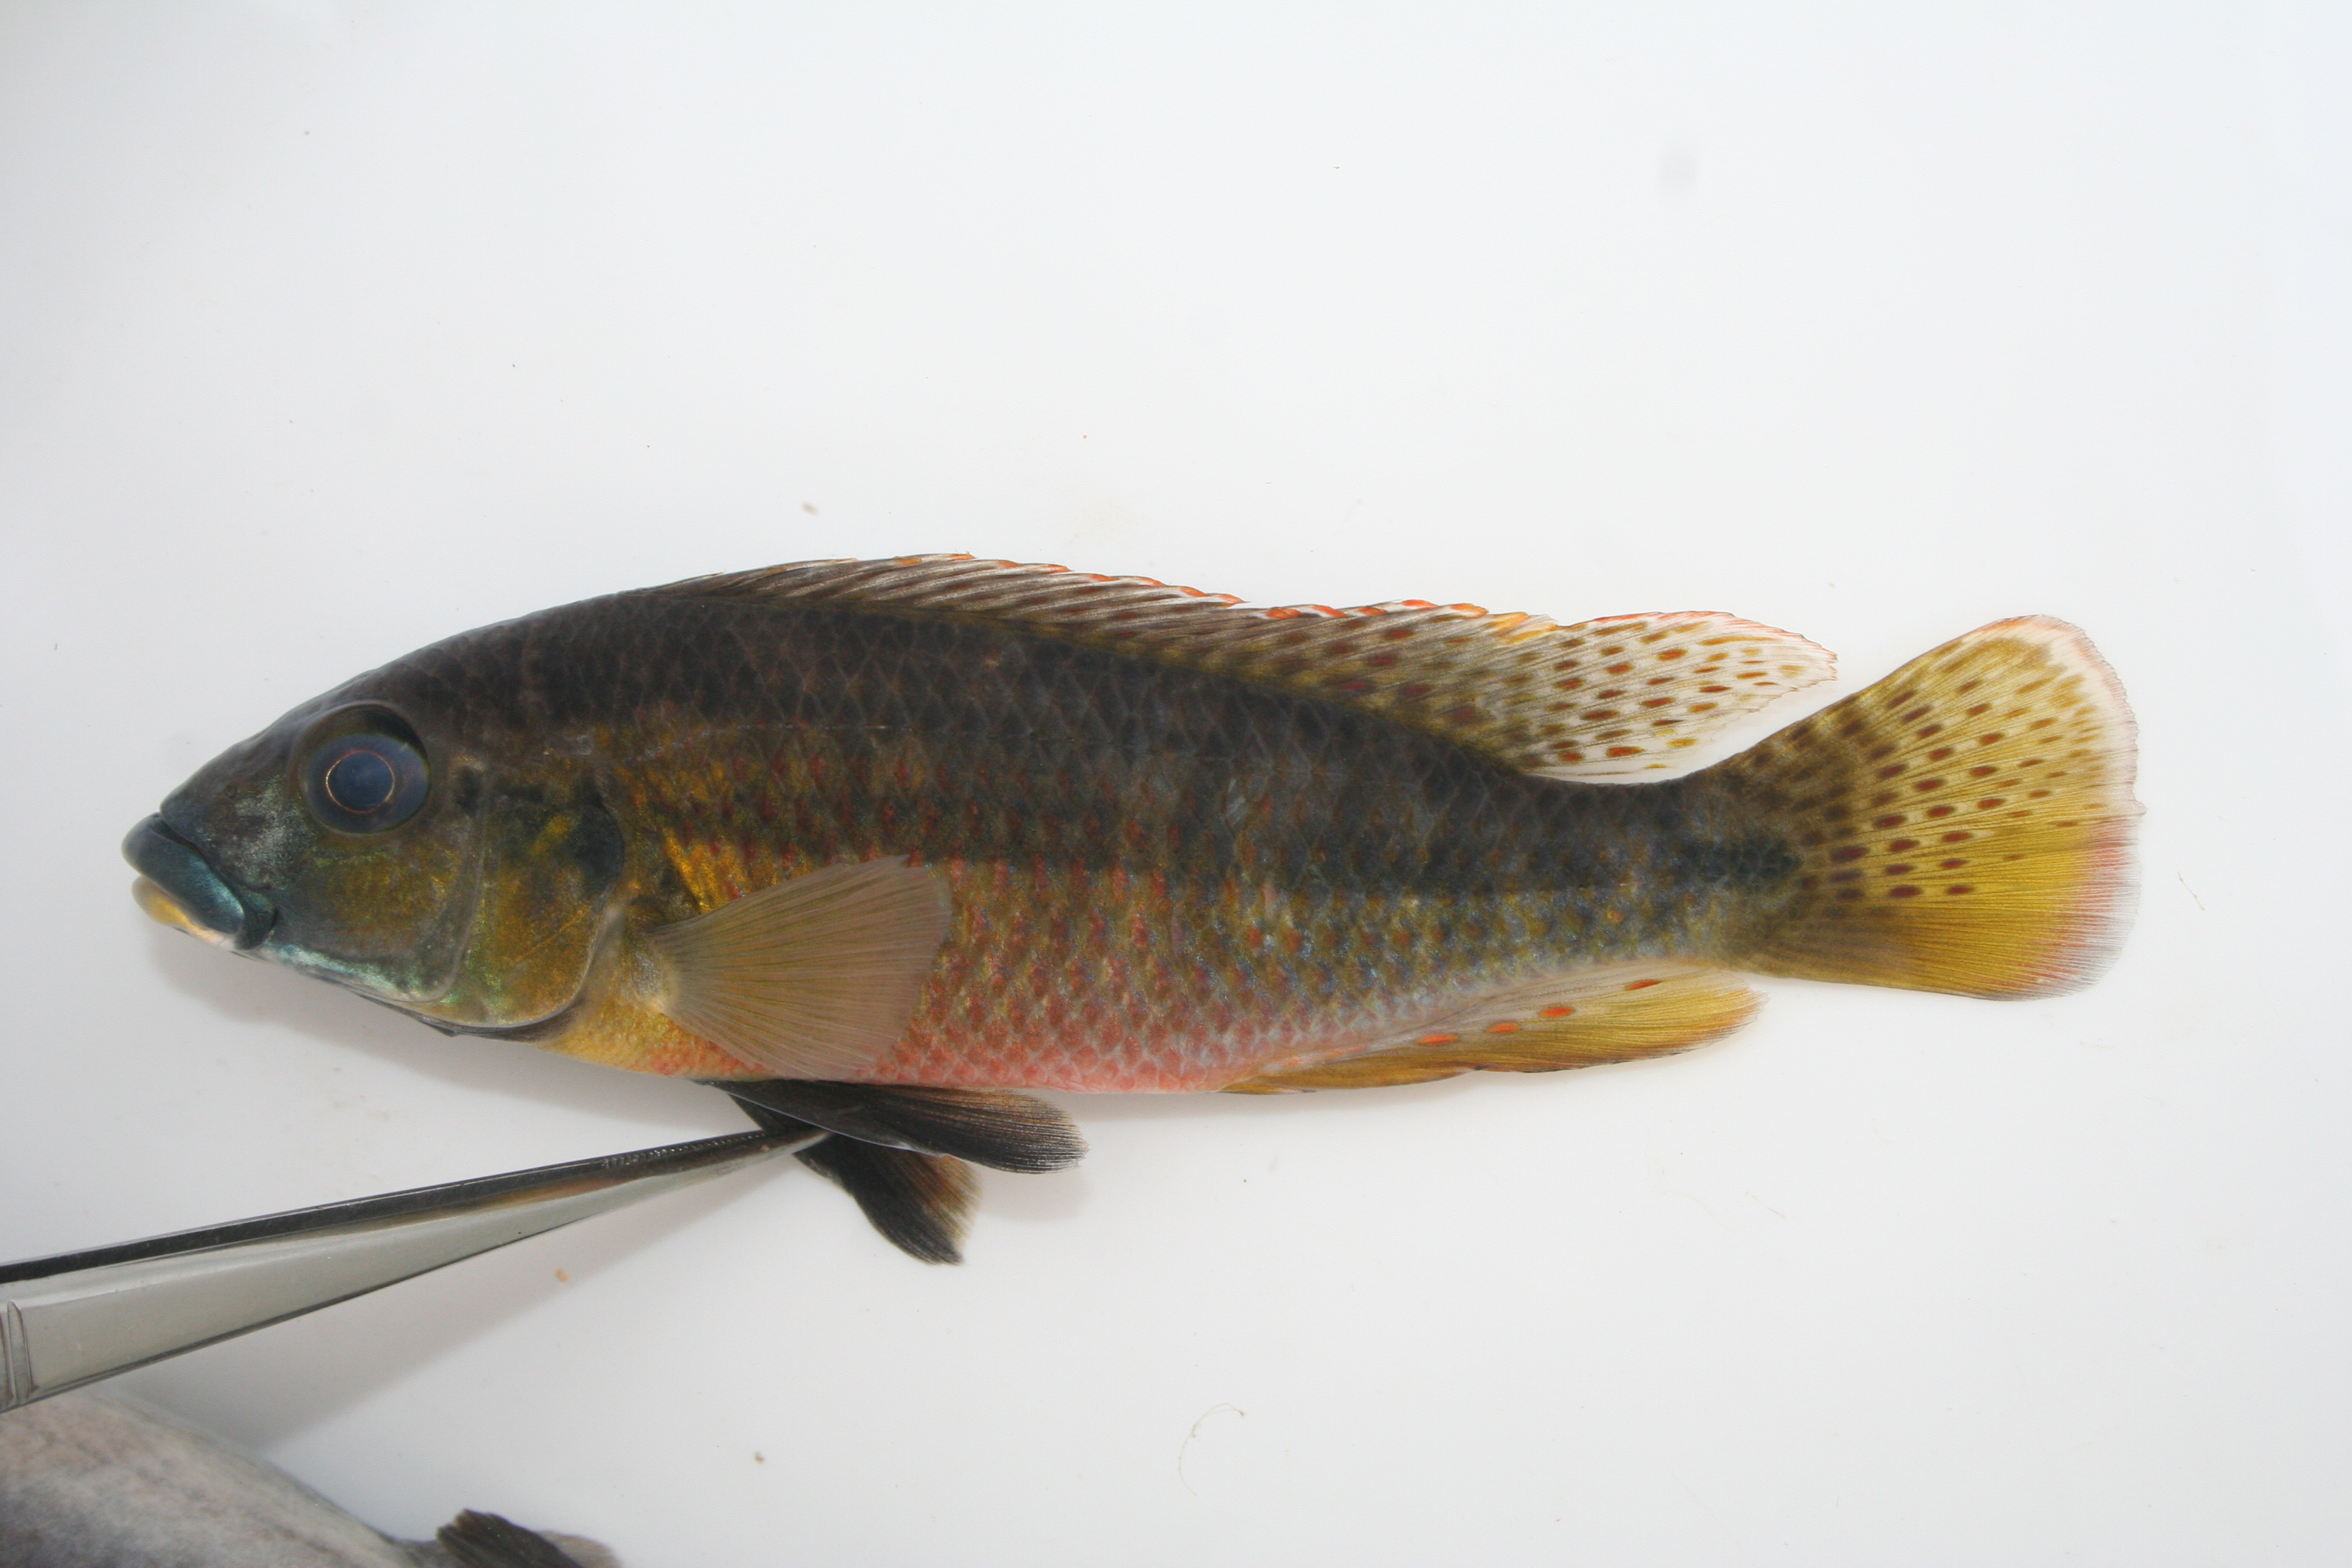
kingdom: Animalia
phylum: Chordata
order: Perciformes
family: Cichlidae
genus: Pharyngochromis
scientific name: Pharyngochromis
